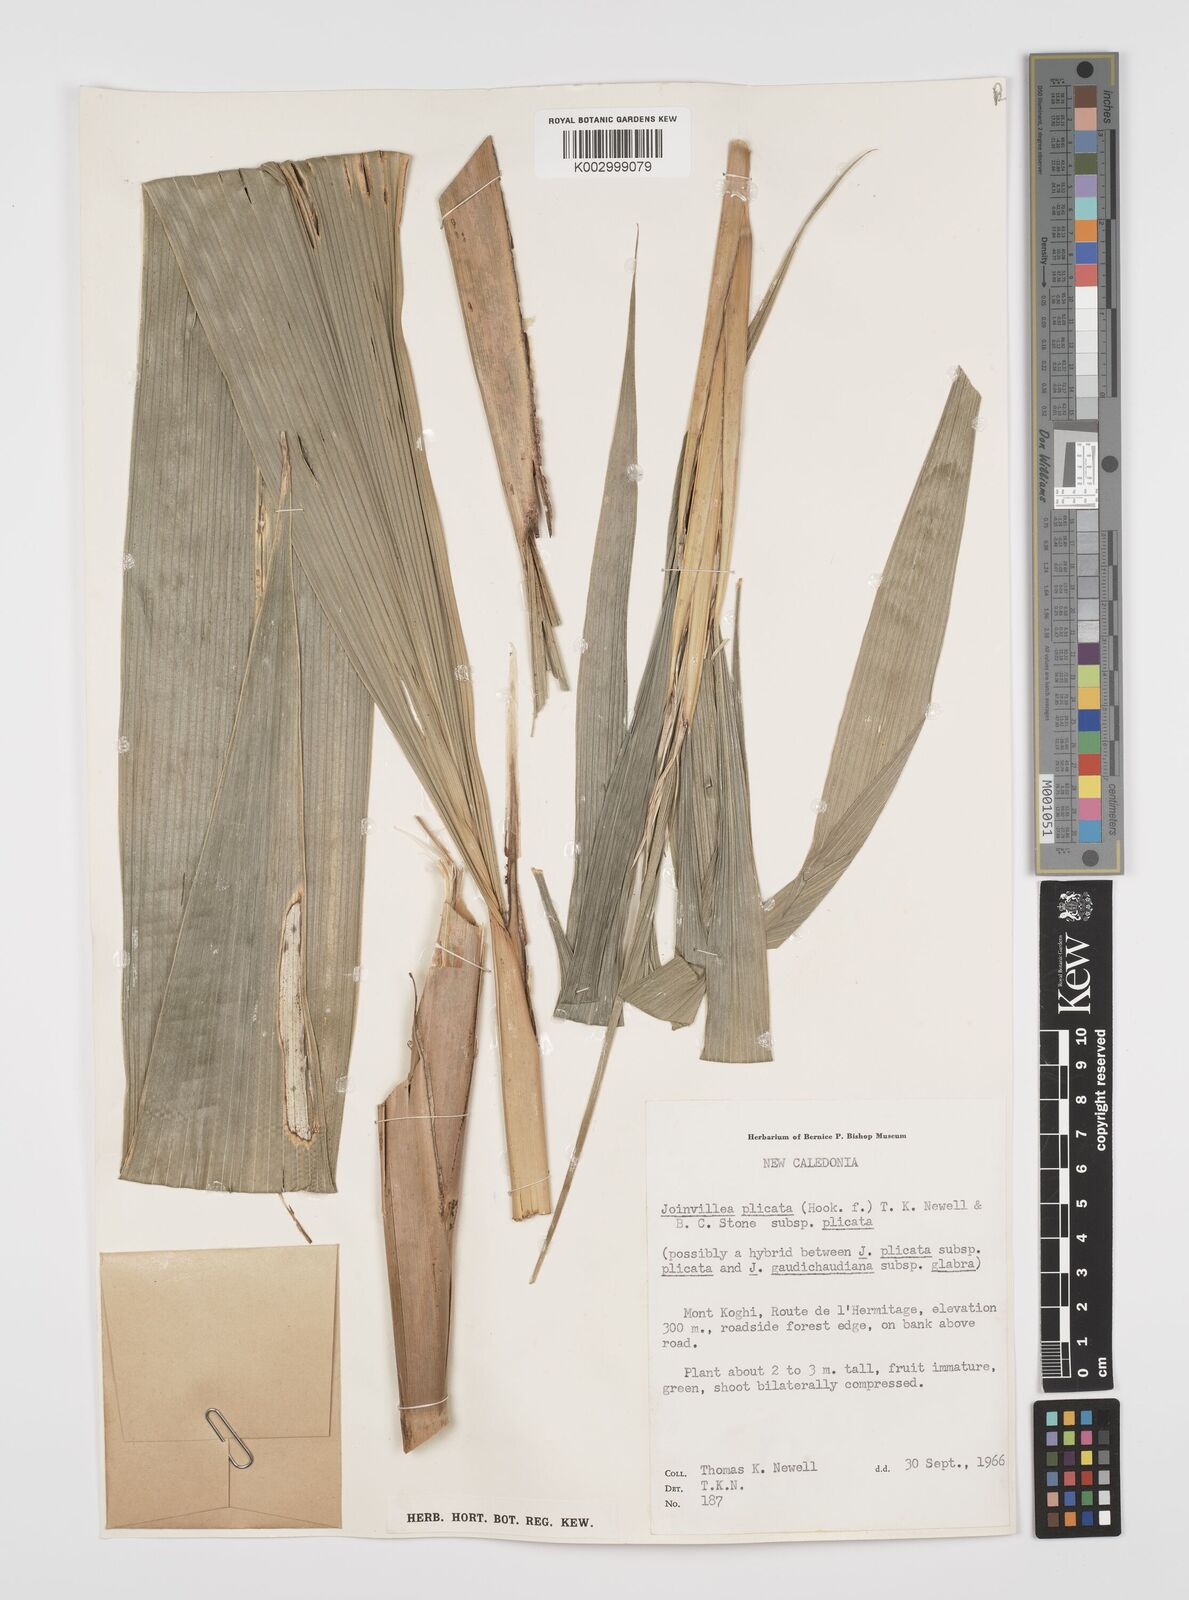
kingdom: Plantae
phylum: Tracheophyta
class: Liliopsida
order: Poales
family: Joinvilleaceae
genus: Joinvillea
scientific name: Joinvillea plicata
